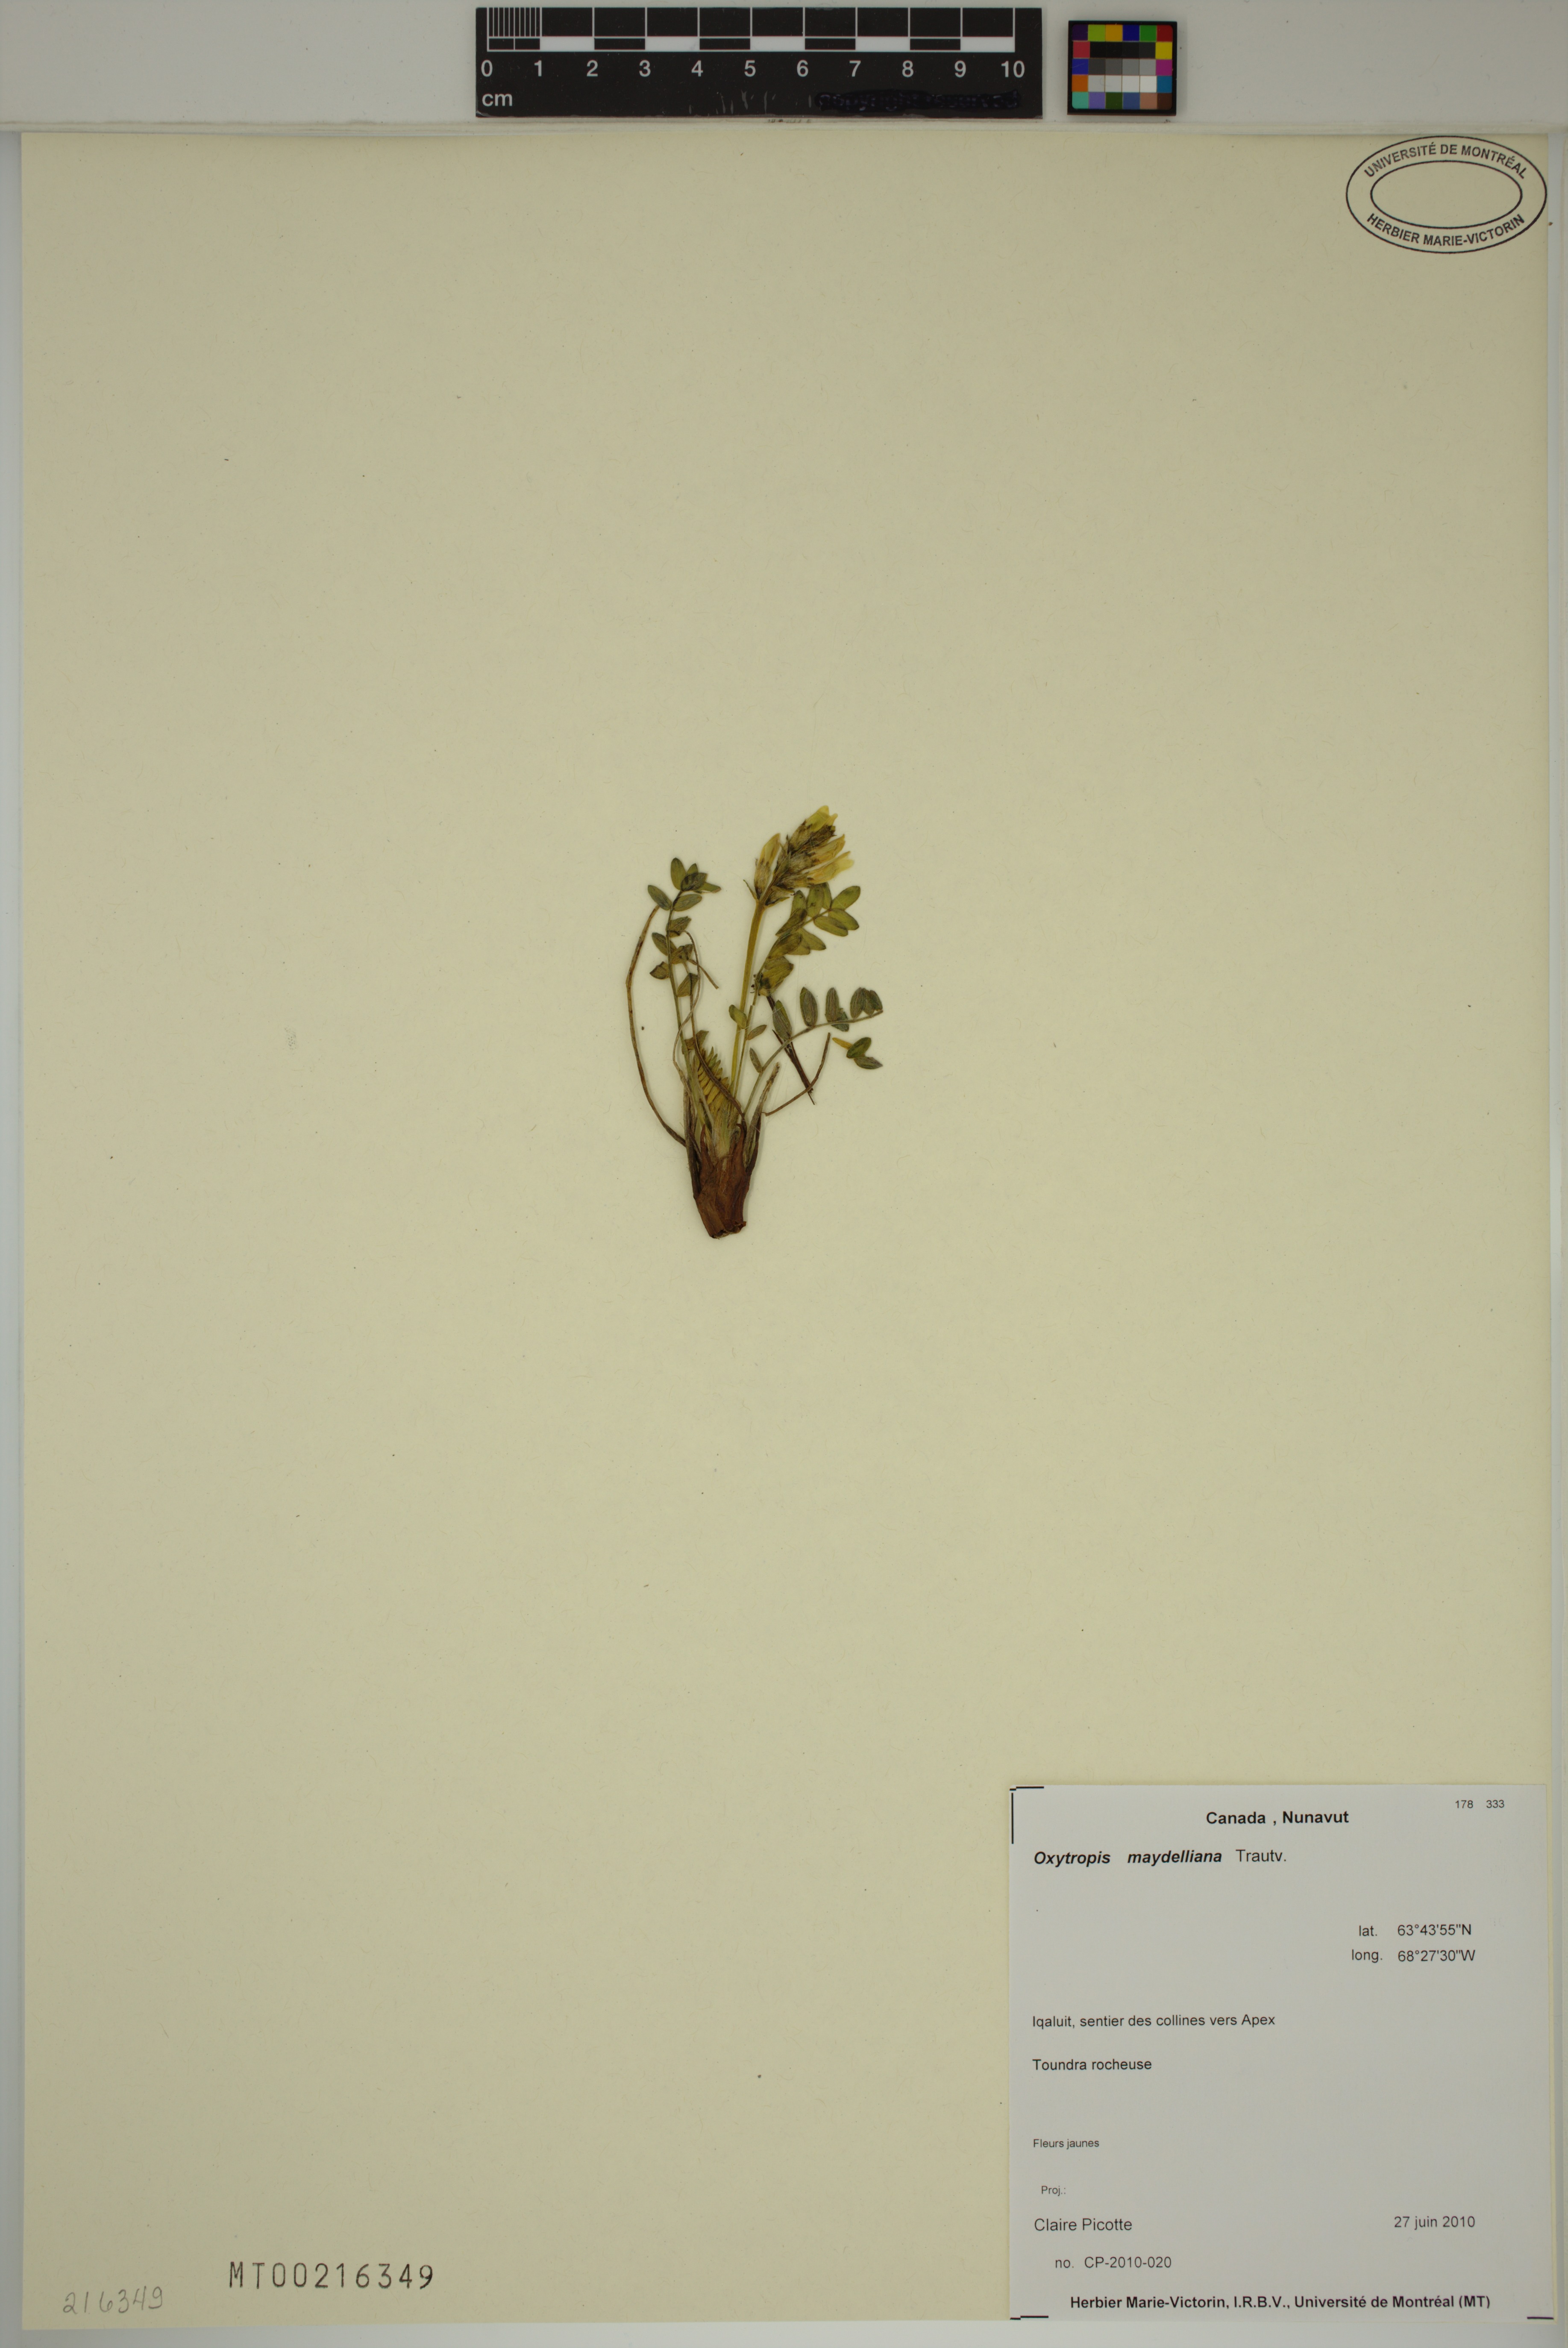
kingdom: Plantae
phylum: Tracheophyta
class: Magnoliopsida
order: Fabales
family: Fabaceae
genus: Oxytropis
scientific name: Oxytropis maydelliana
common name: Maydell's locoweed
